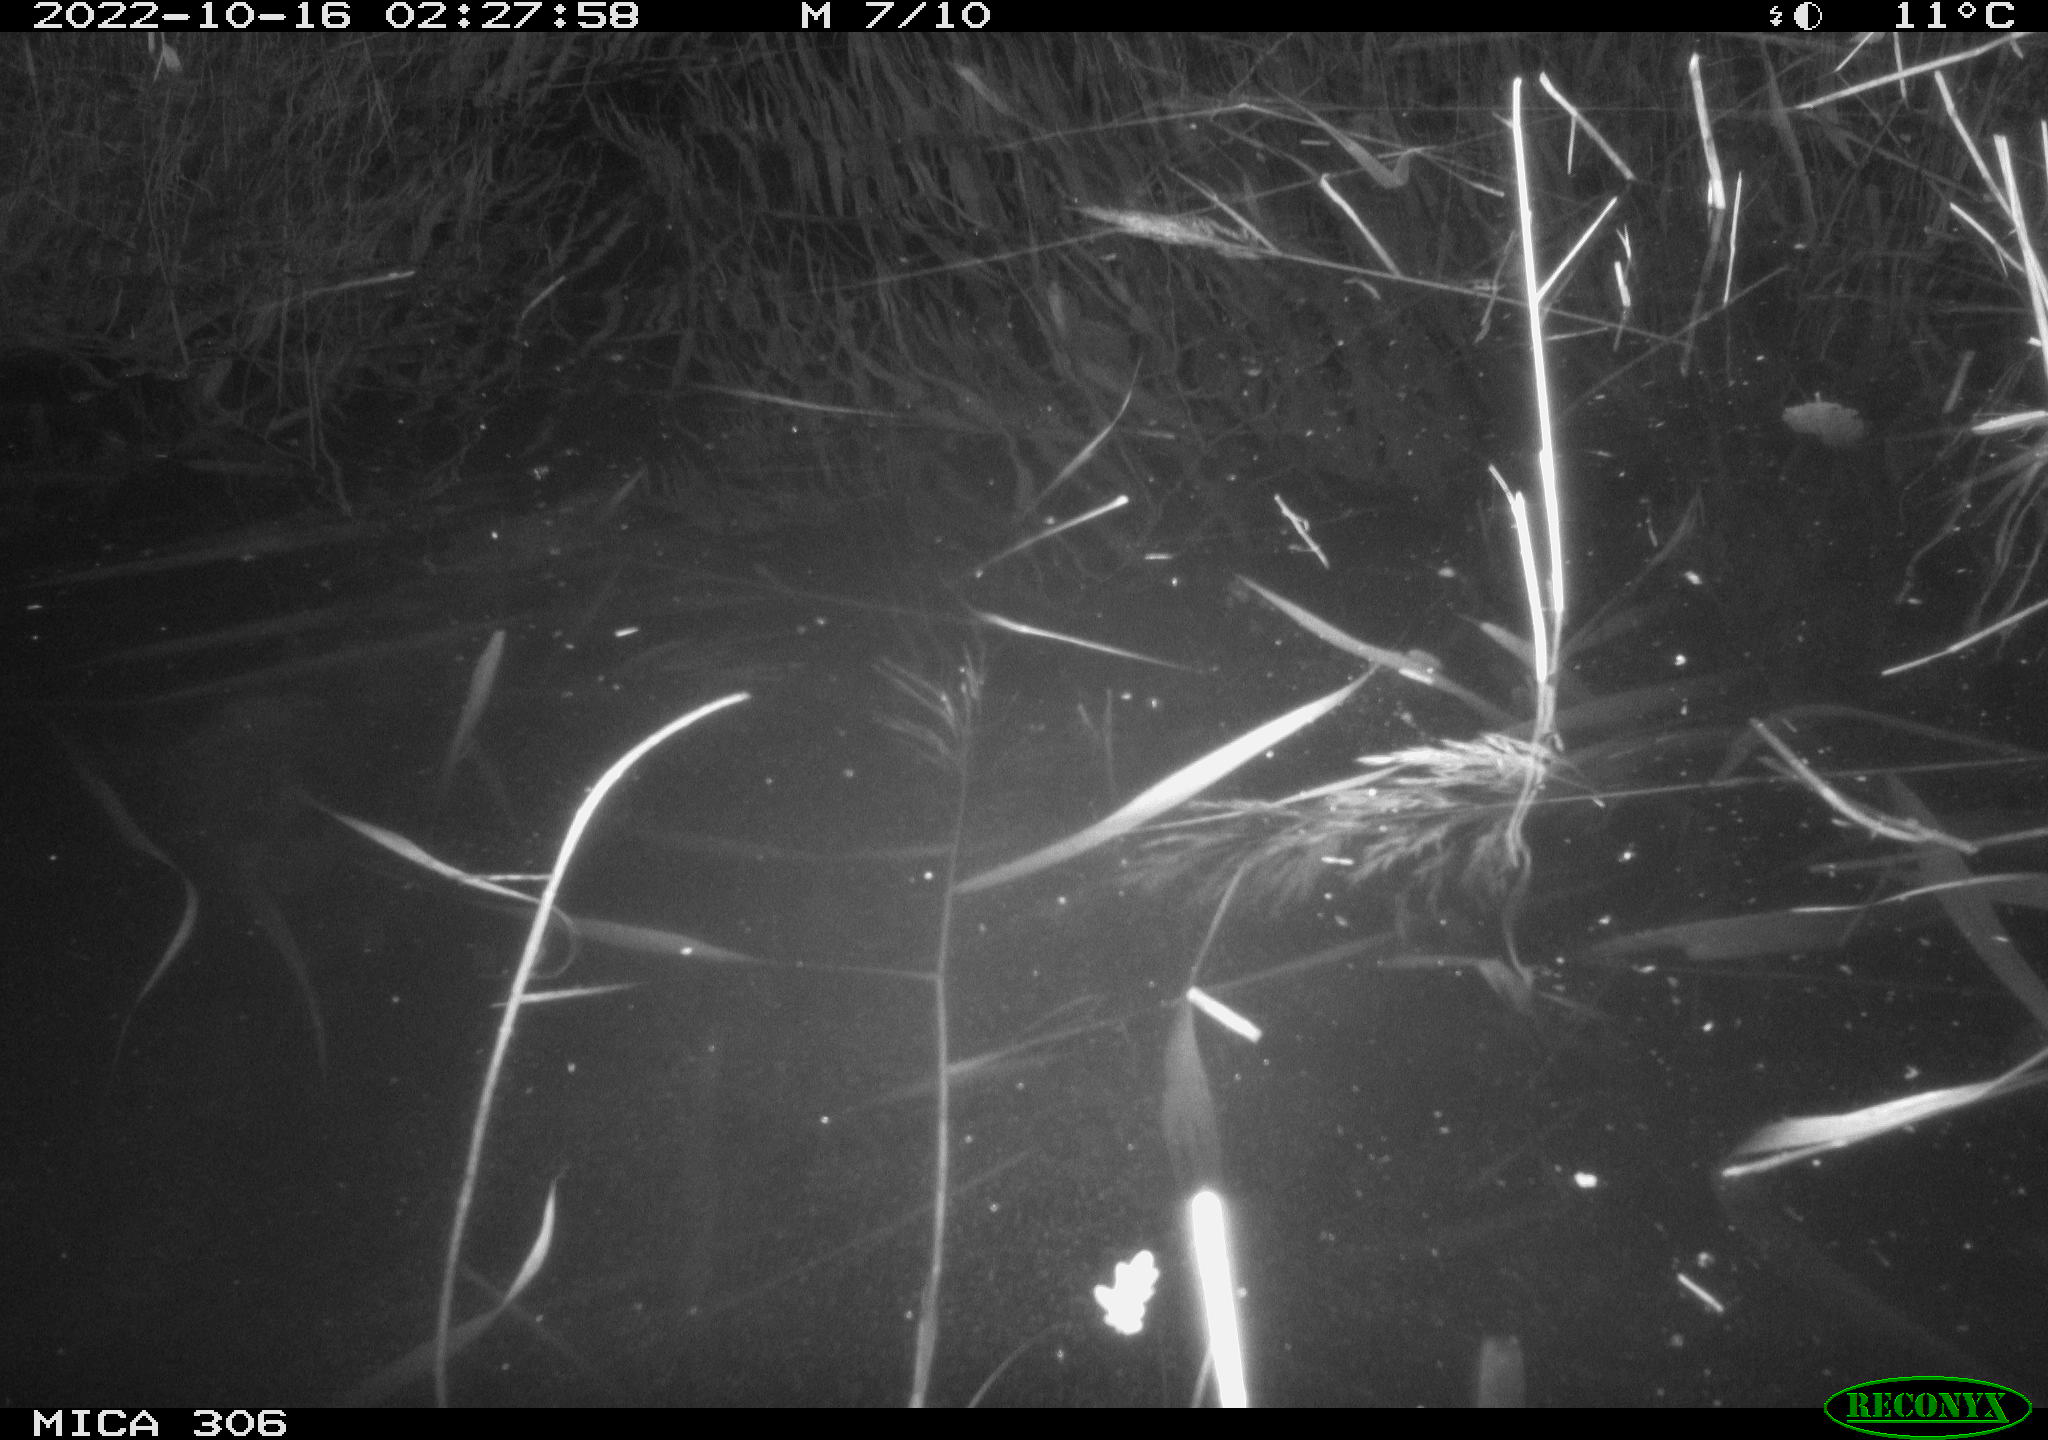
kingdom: Animalia
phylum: Chordata
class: Mammalia
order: Rodentia
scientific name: Rodentia
